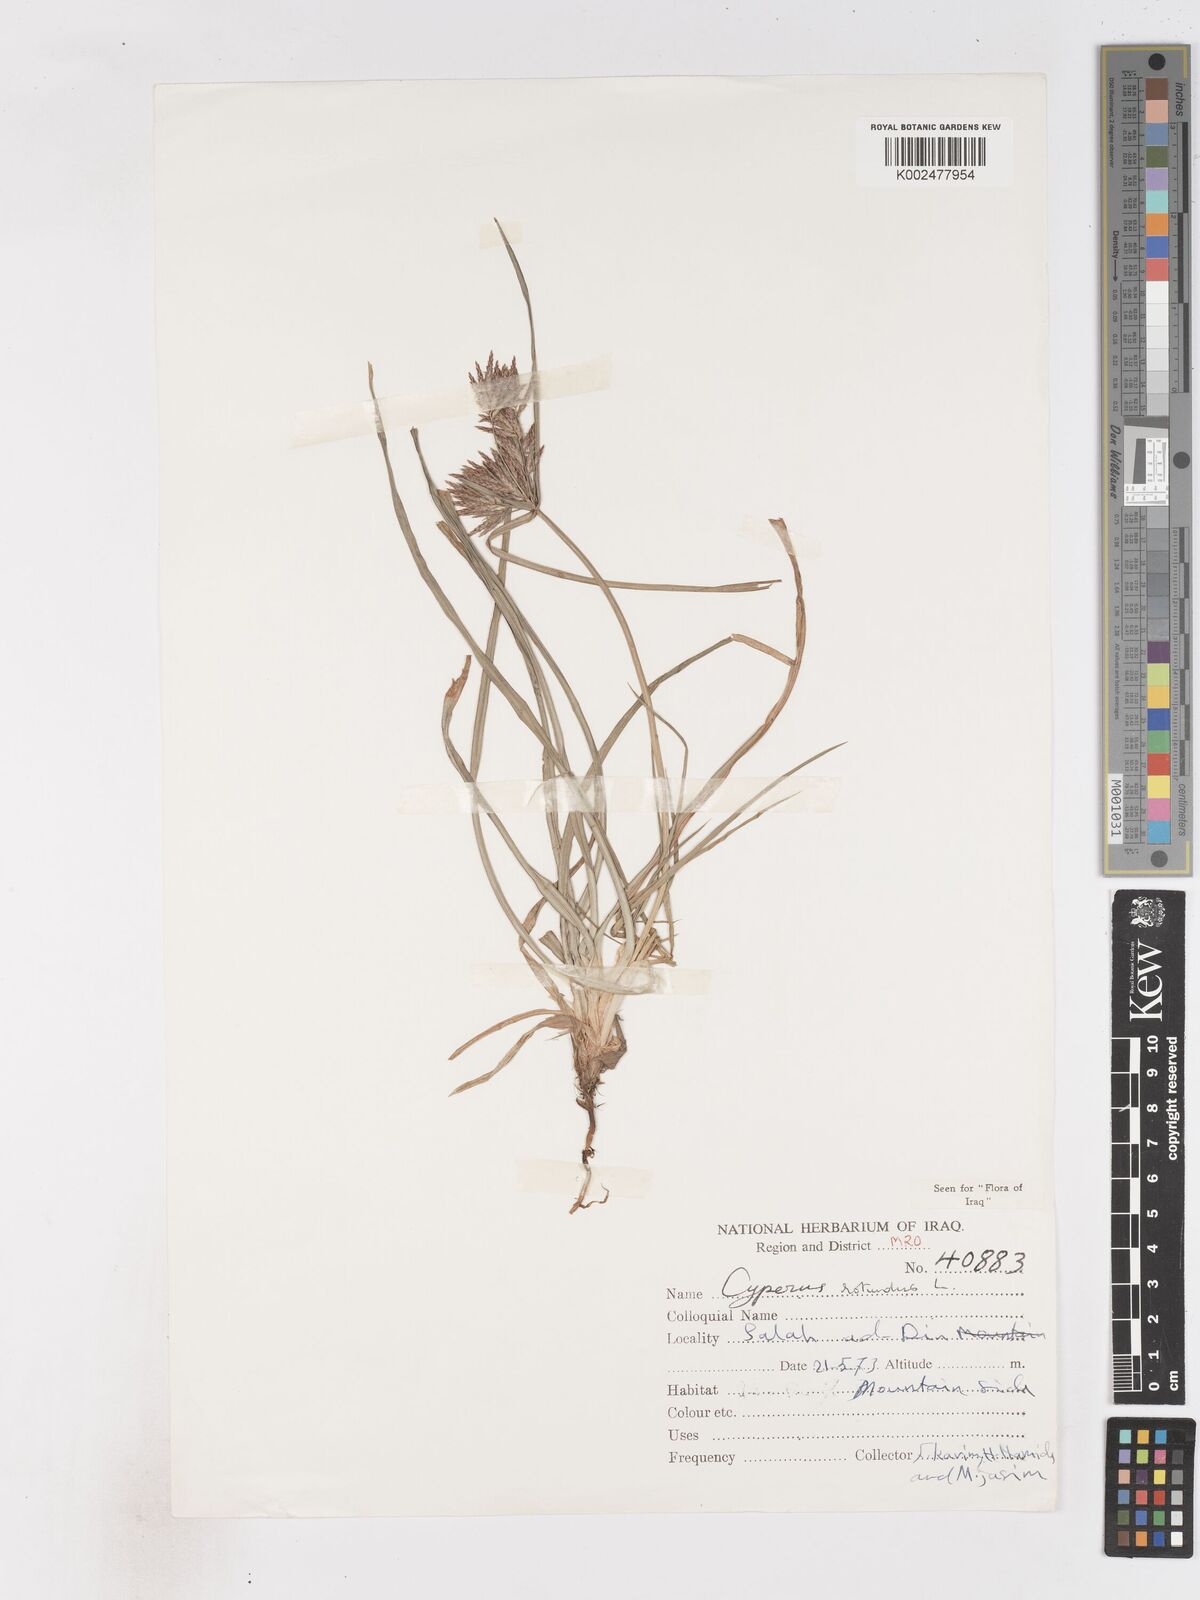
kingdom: Plantae
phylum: Tracheophyta
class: Liliopsida
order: Poales
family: Cyperaceae
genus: Cyperus
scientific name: Cyperus rotundus
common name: Nutgrass
